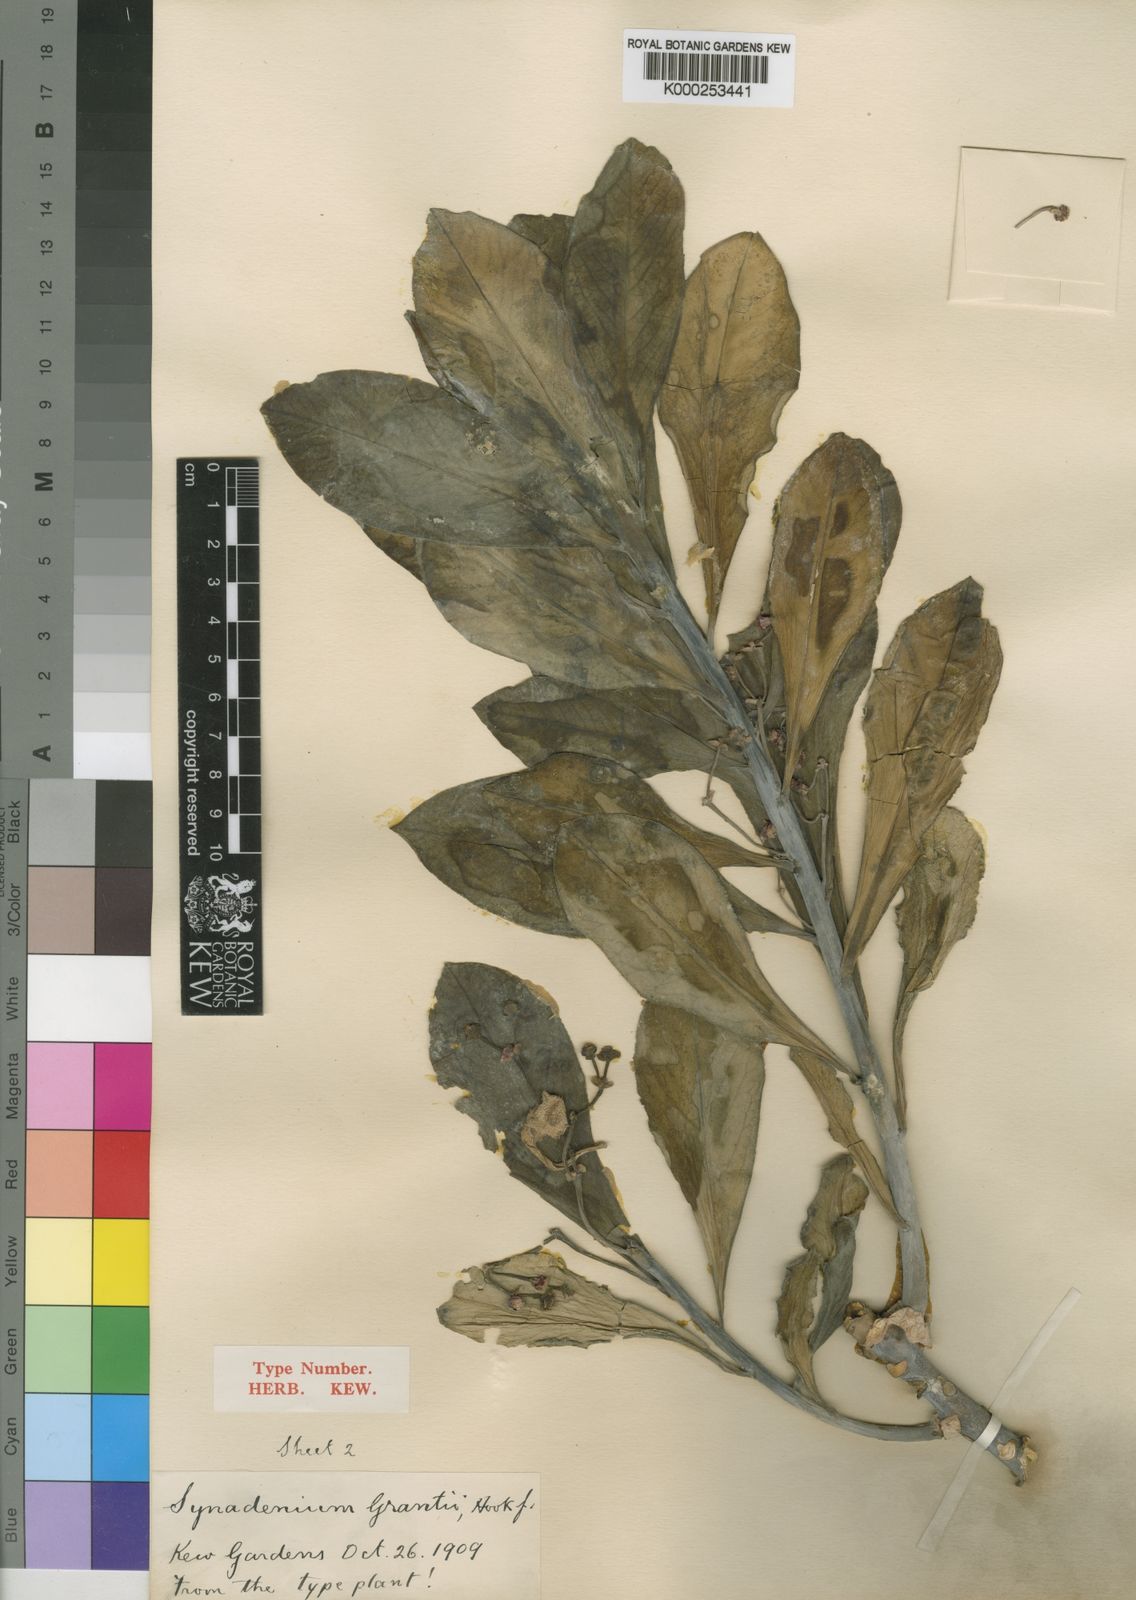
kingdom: Plantae
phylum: Tracheophyta
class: Magnoliopsida
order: Malpighiales
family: Euphorbiaceae
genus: Euphorbia
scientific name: Euphorbia umbellata
